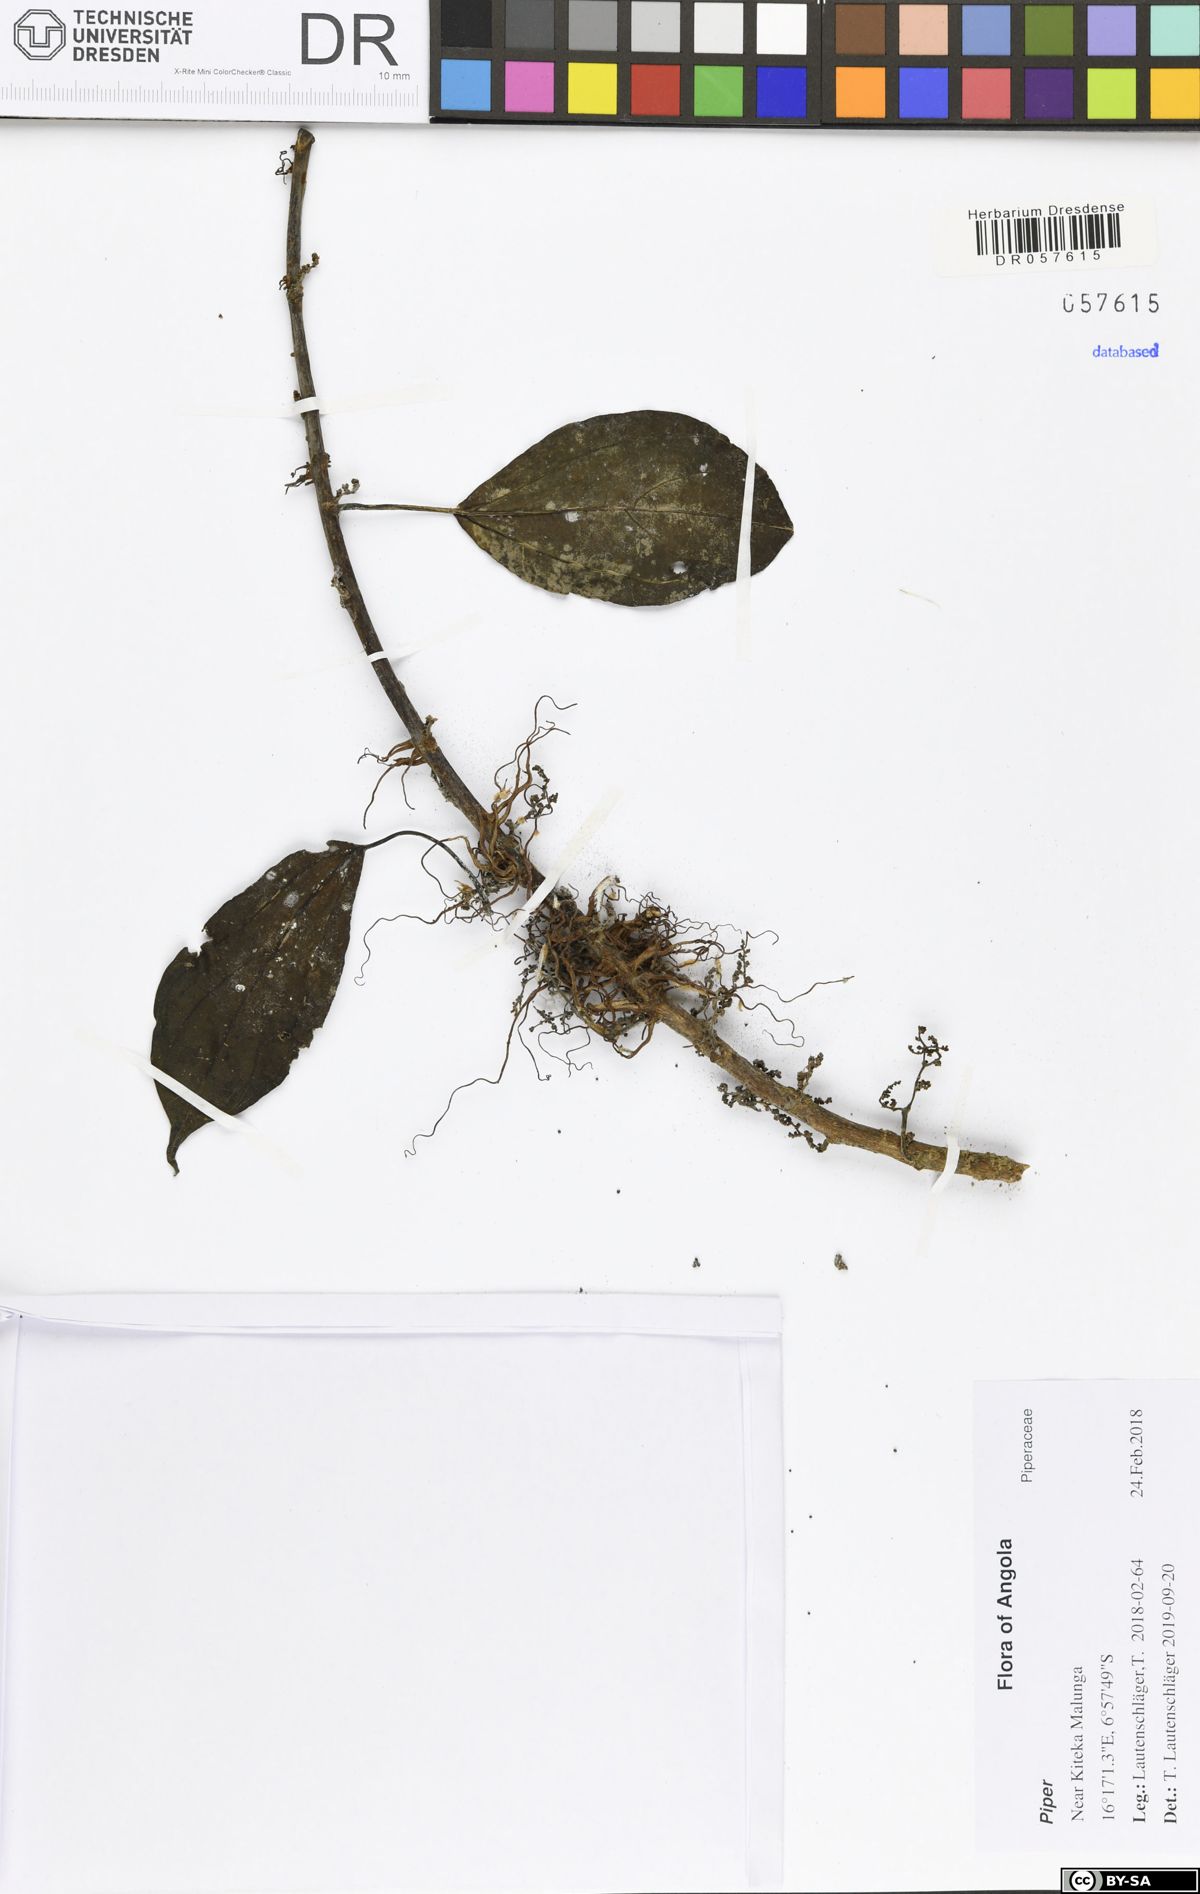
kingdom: Plantae
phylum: Tracheophyta
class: Magnoliopsida
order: Piperales
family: Piperaceae
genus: Piper
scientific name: Piper
